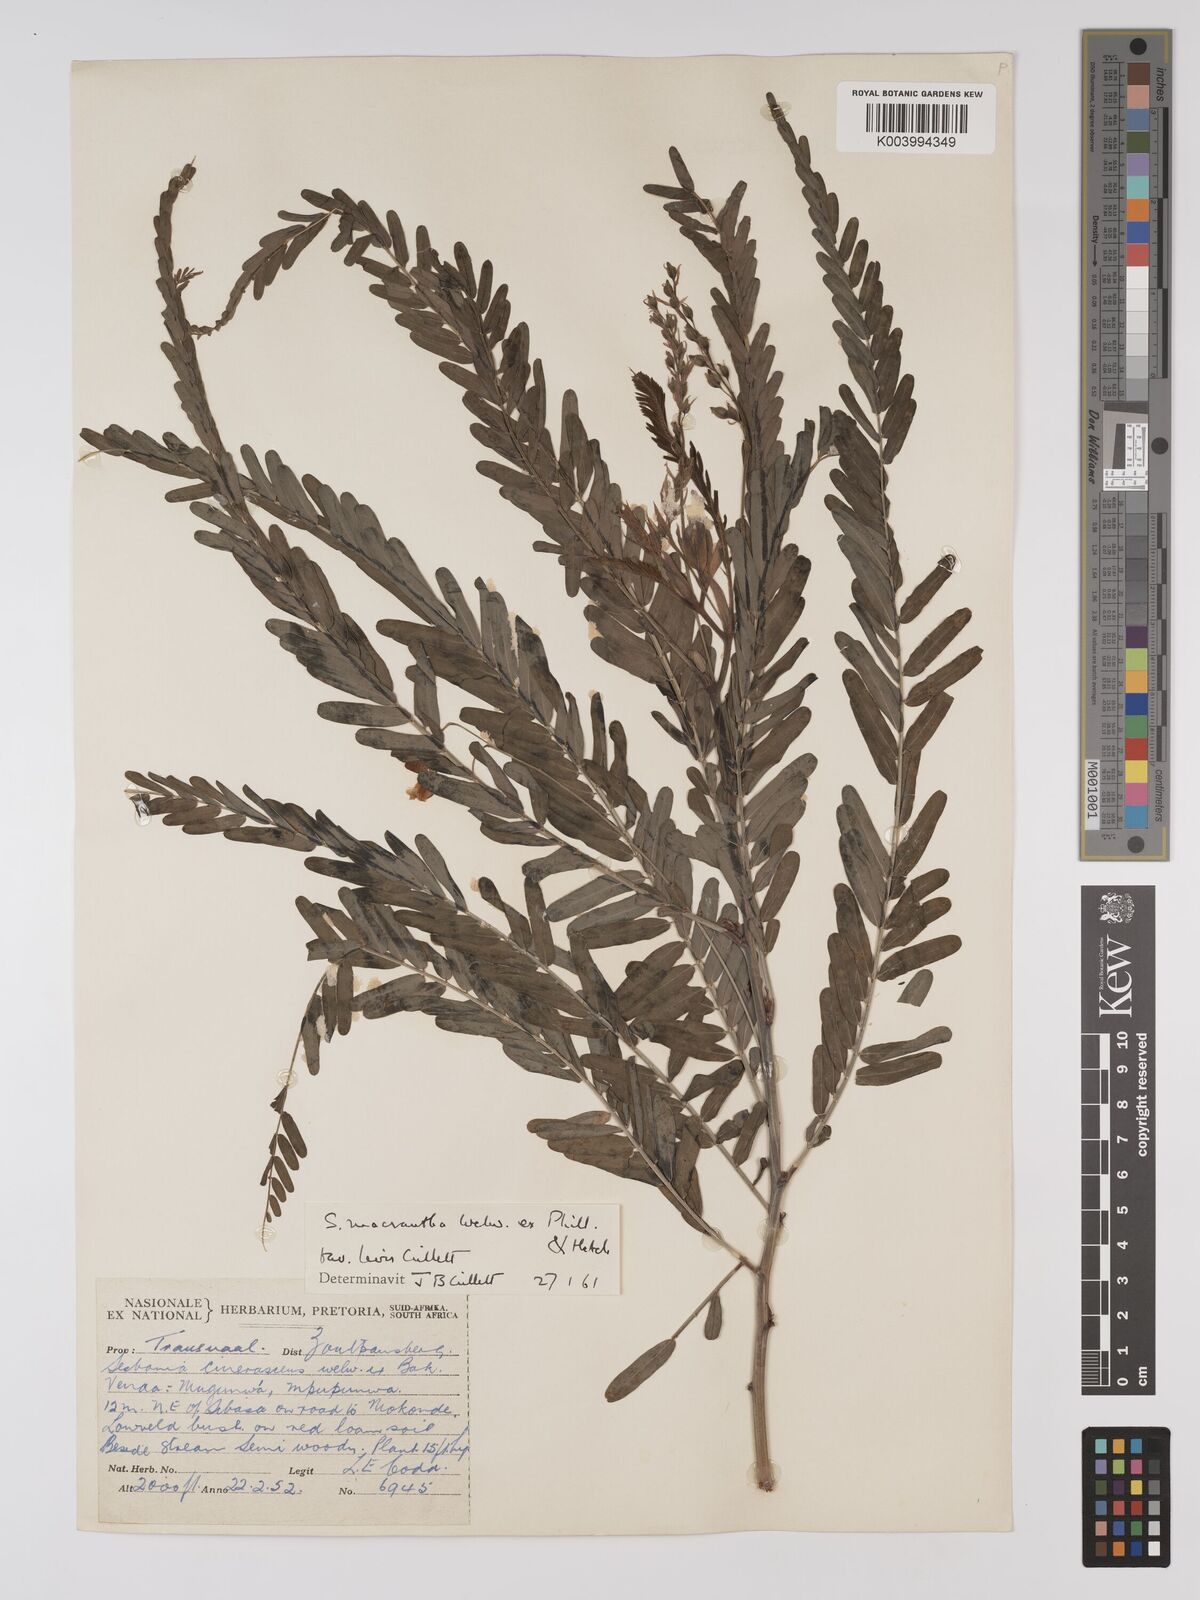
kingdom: Plantae
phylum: Tracheophyta
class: Magnoliopsida
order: Fabales
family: Fabaceae
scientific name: Fabaceae
